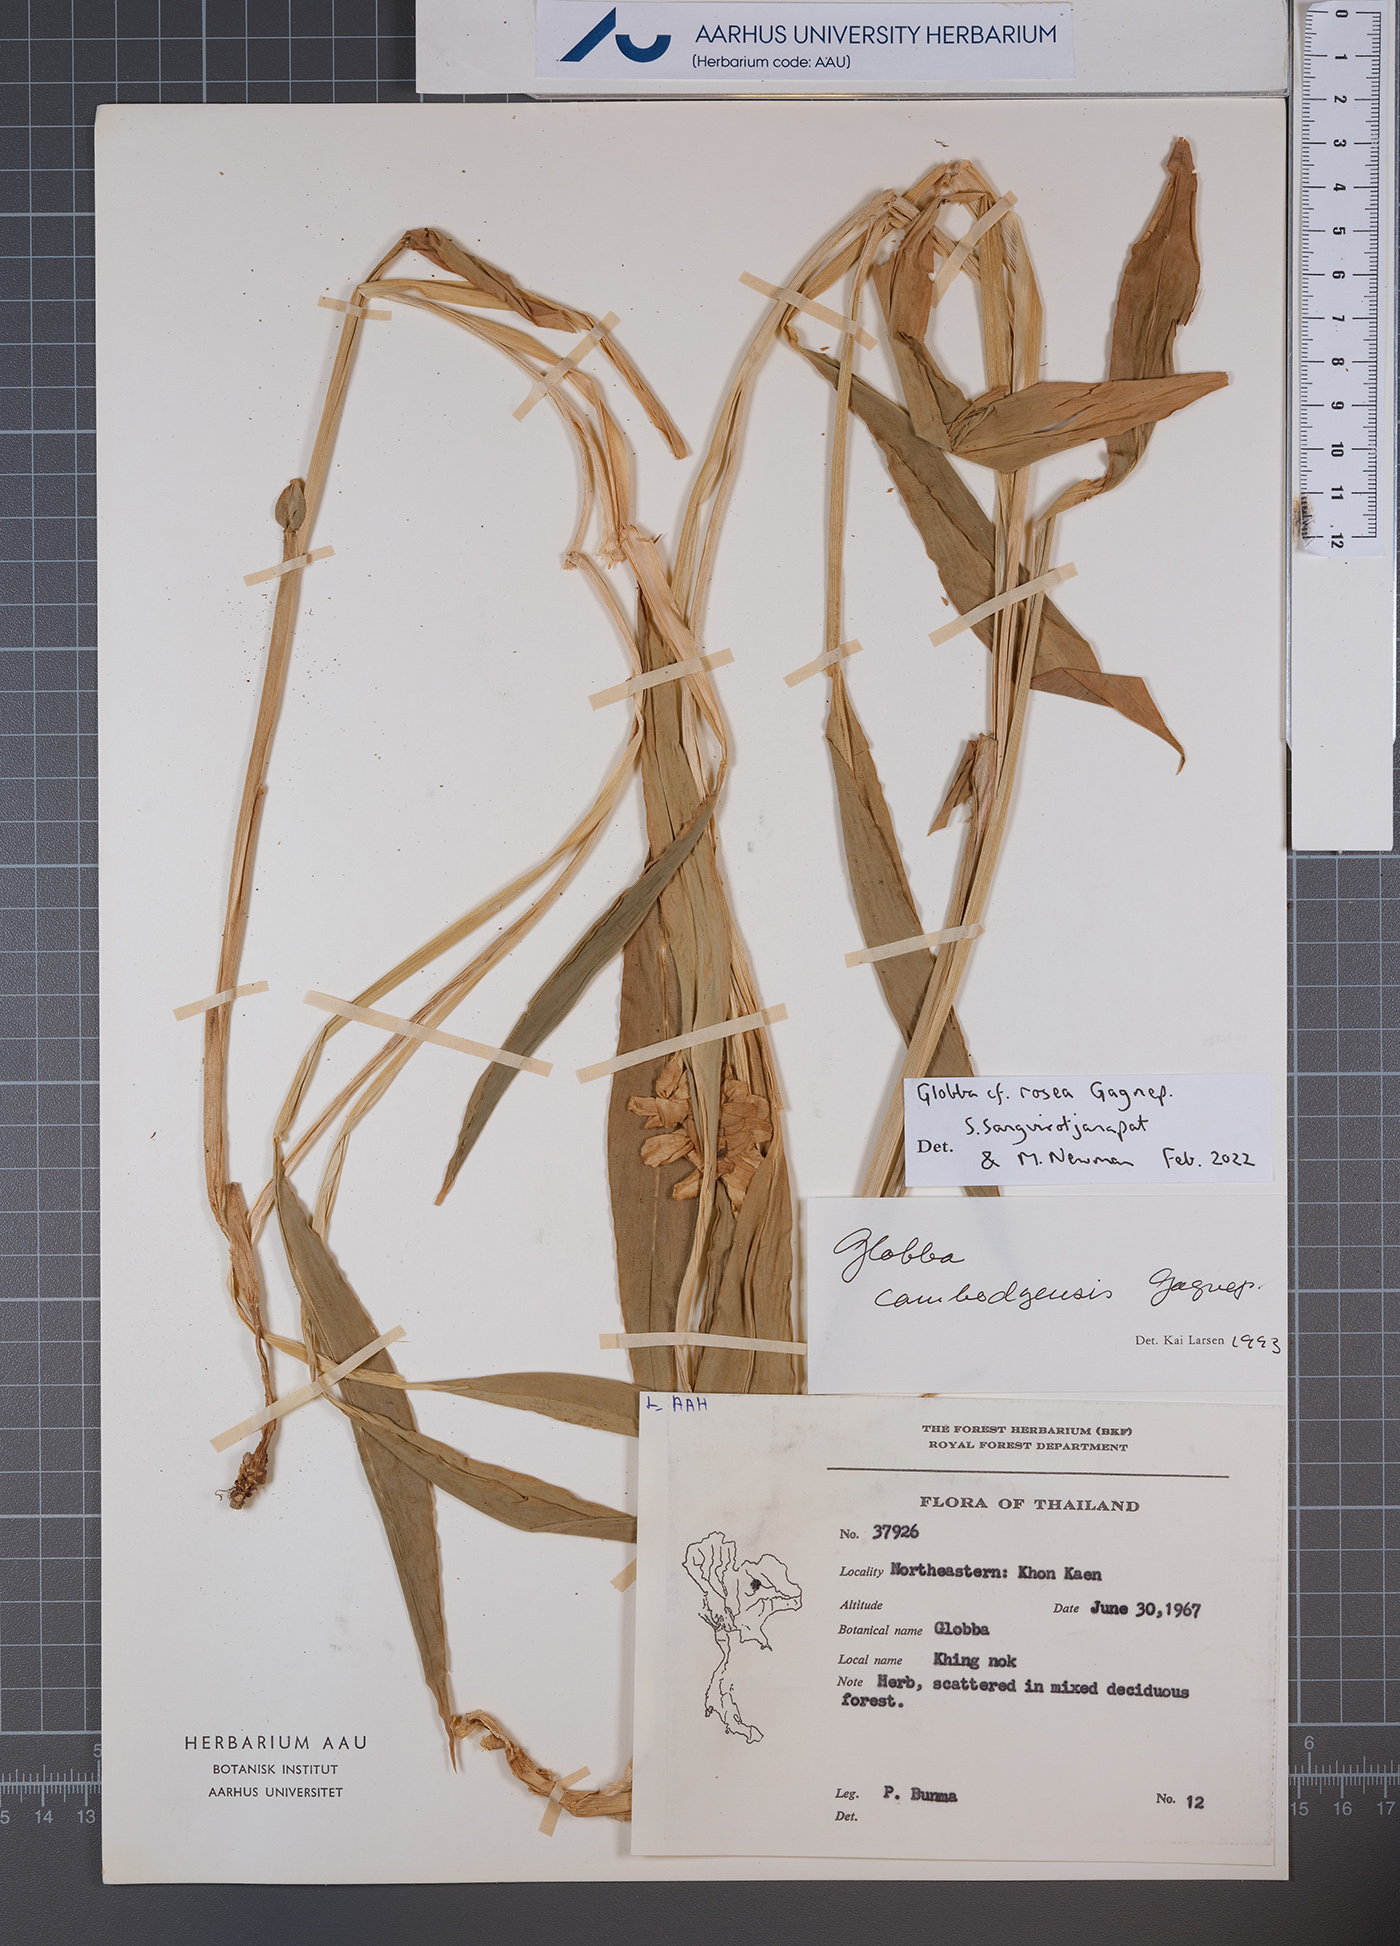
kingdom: Plantae
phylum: Tracheophyta
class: Liliopsida
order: Zingiberales
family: Zingiberaceae
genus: Globba
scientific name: Globba rosea
